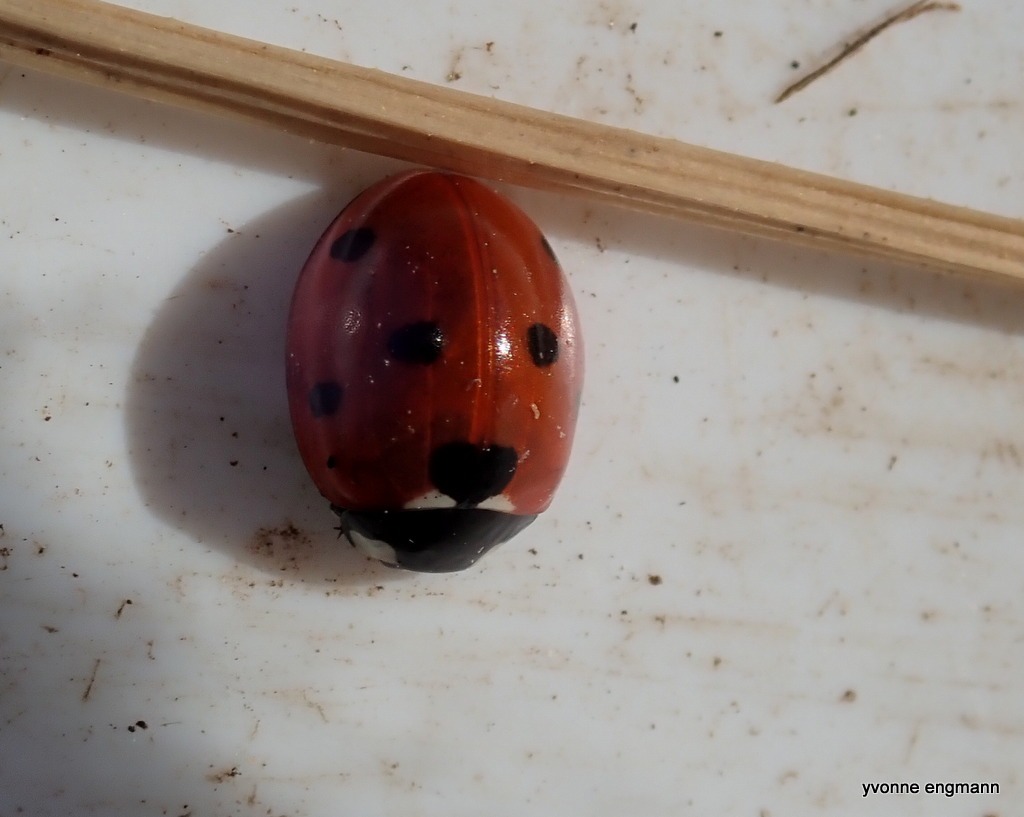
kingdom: Animalia
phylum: Arthropoda
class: Insecta
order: Coleoptera
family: Coccinellidae
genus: Coccinella
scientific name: Coccinella septempunctata
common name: Syvplettet mariehøne
